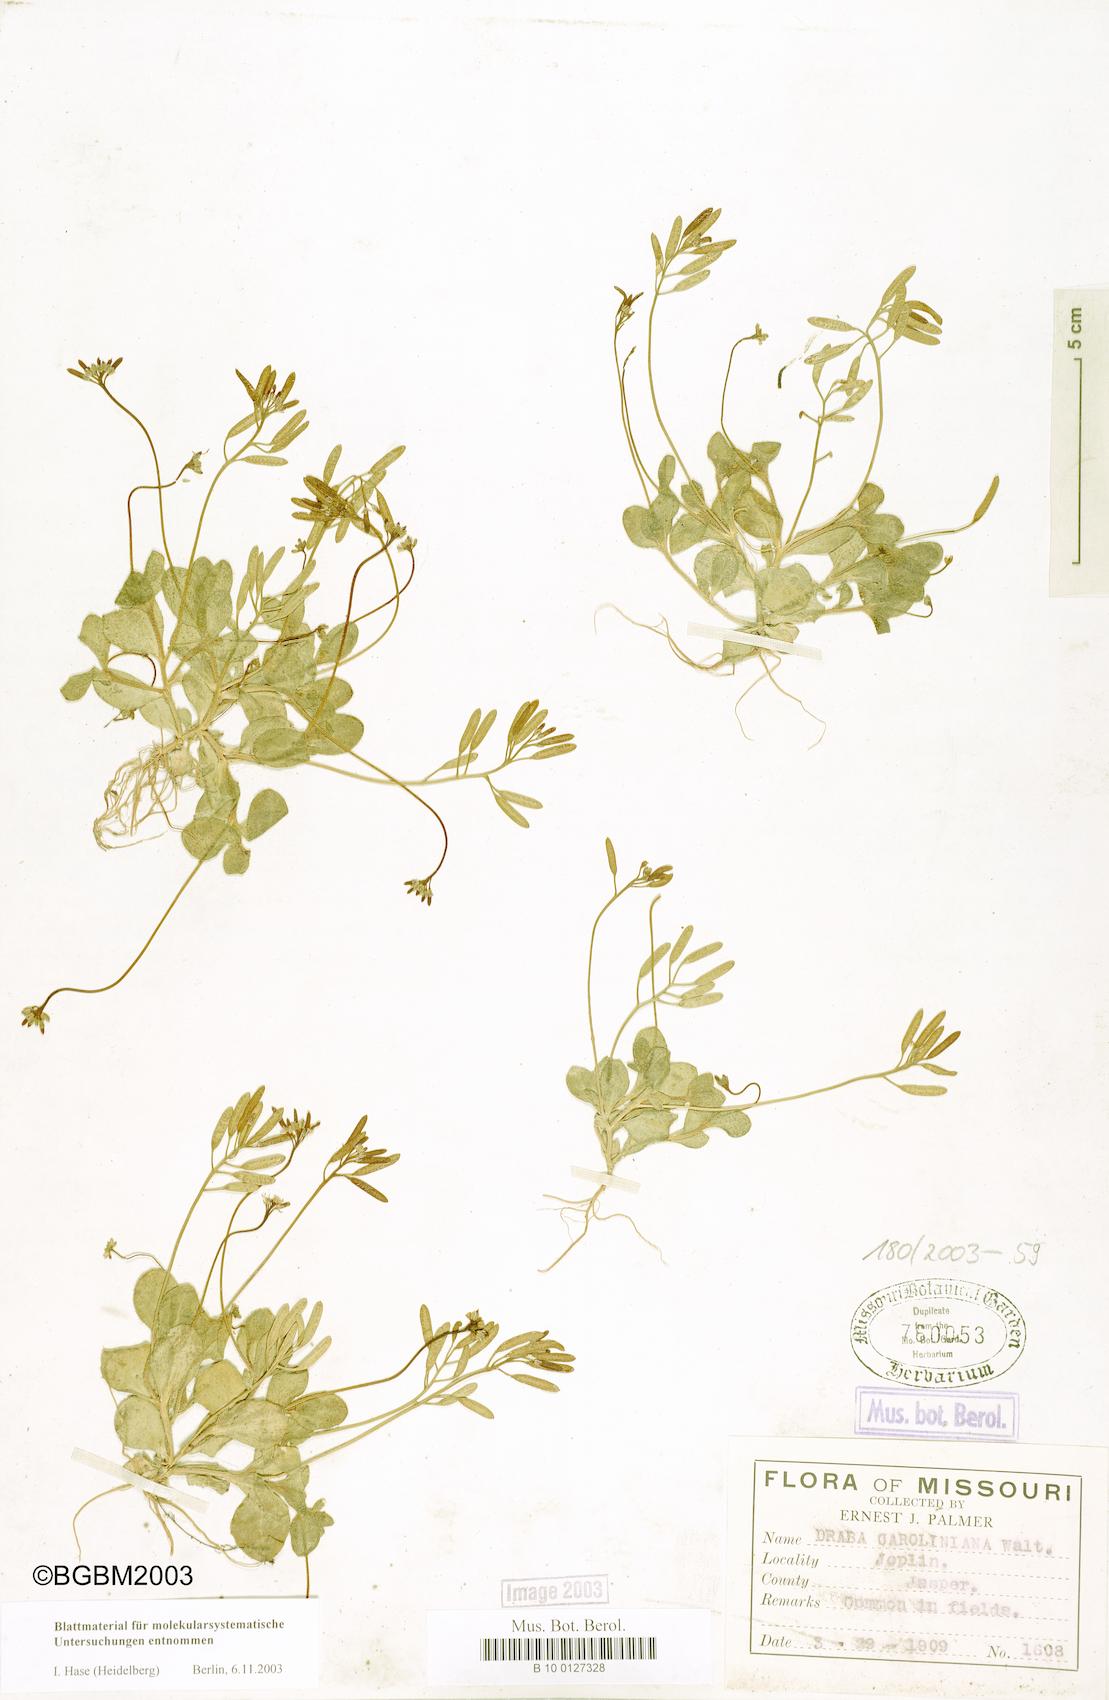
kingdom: Plantae
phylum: Tracheophyta
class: Magnoliopsida
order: Brassicales
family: Brassicaceae
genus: Tomostima
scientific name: Tomostima reptans
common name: Carolina draba
